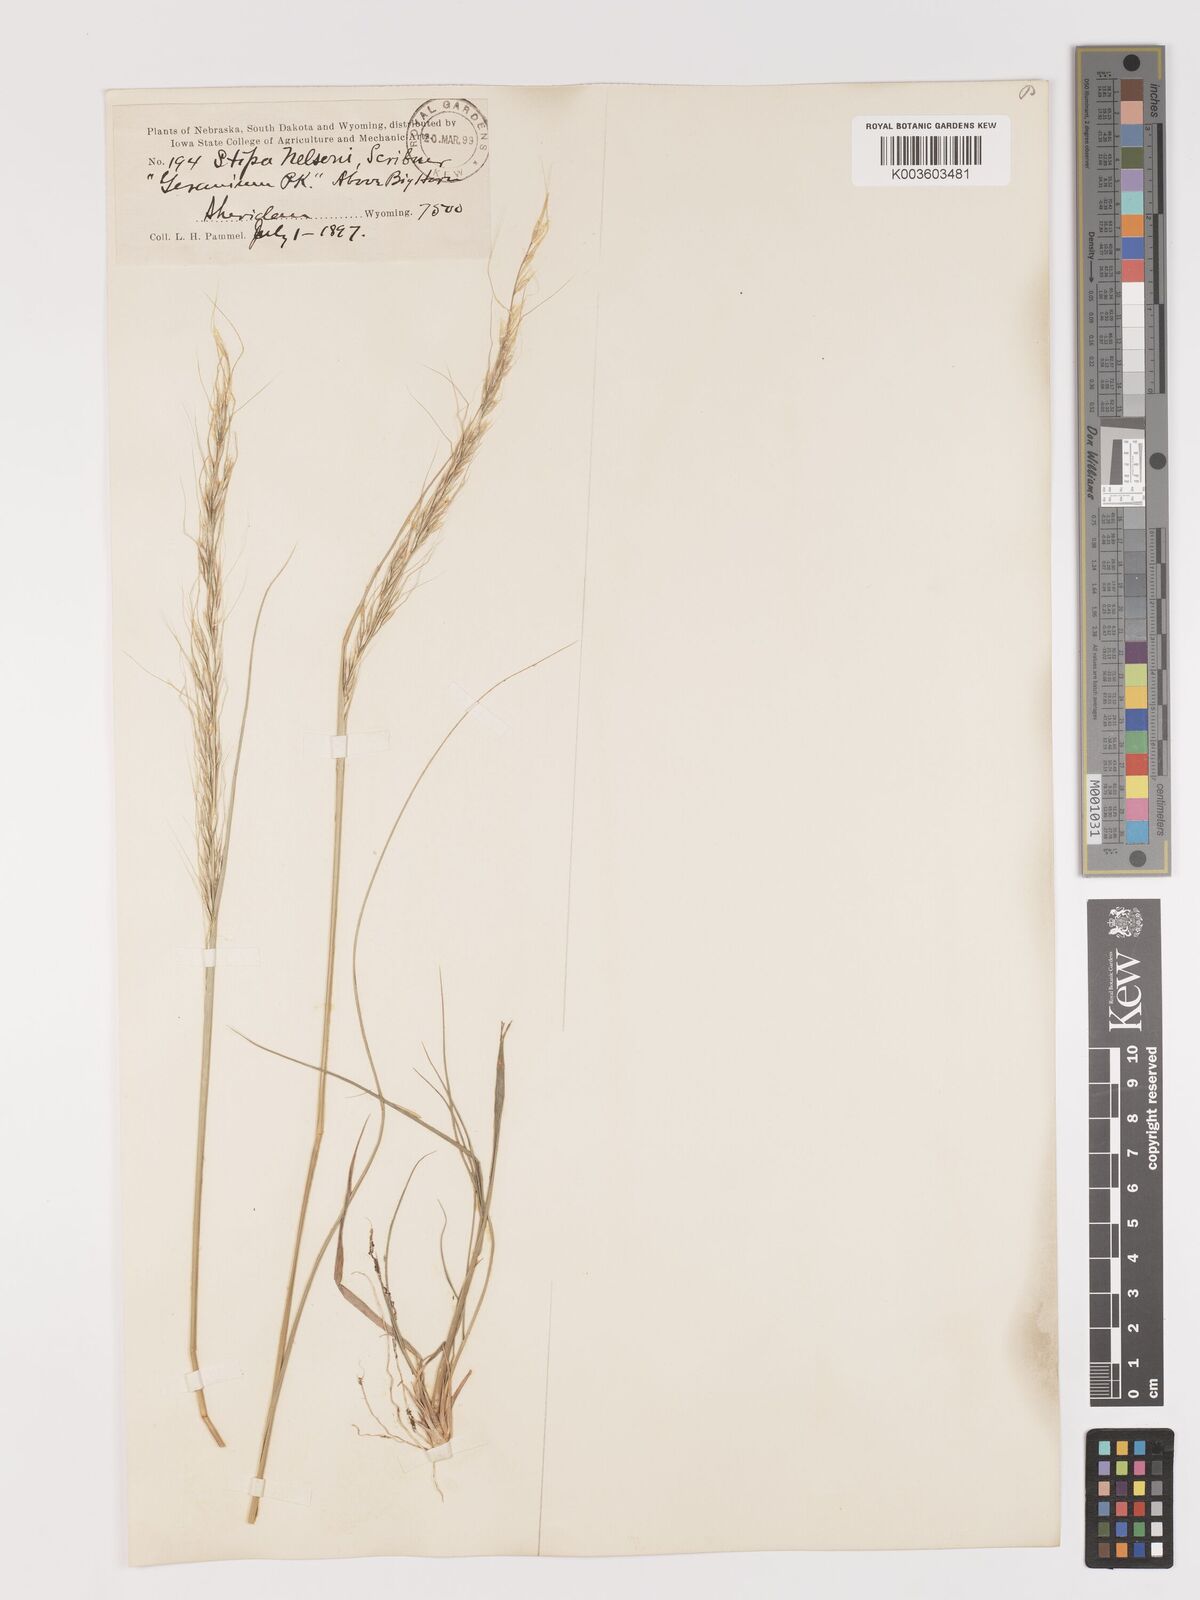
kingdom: Plantae
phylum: Tracheophyta
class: Liliopsida
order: Poales
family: Poaceae
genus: Eriocoma
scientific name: Eriocoma nelsonii
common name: Nelson's needlegrass
